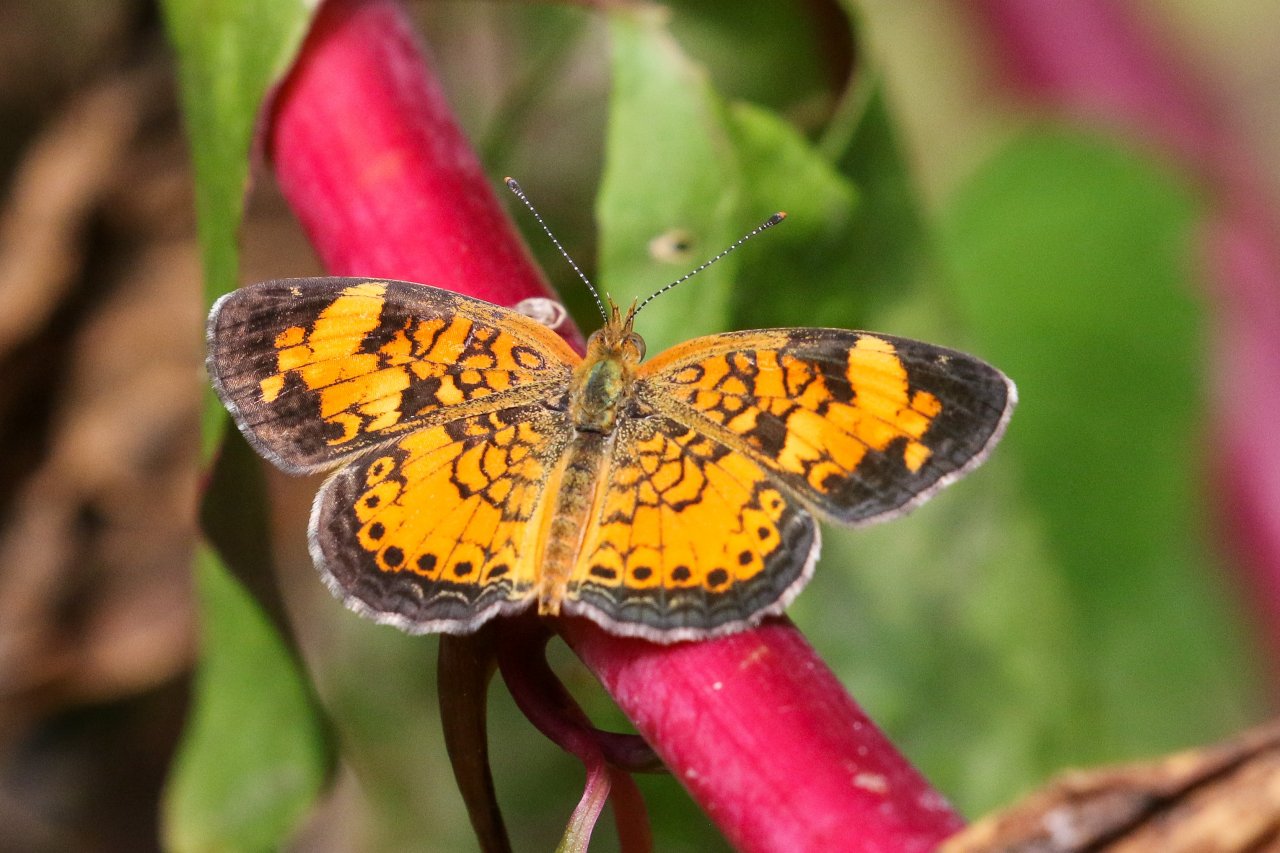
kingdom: Animalia
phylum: Arthropoda
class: Insecta
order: Lepidoptera
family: Nymphalidae
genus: Phyciodes
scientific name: Phyciodes tharos
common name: Pearl Crescent
